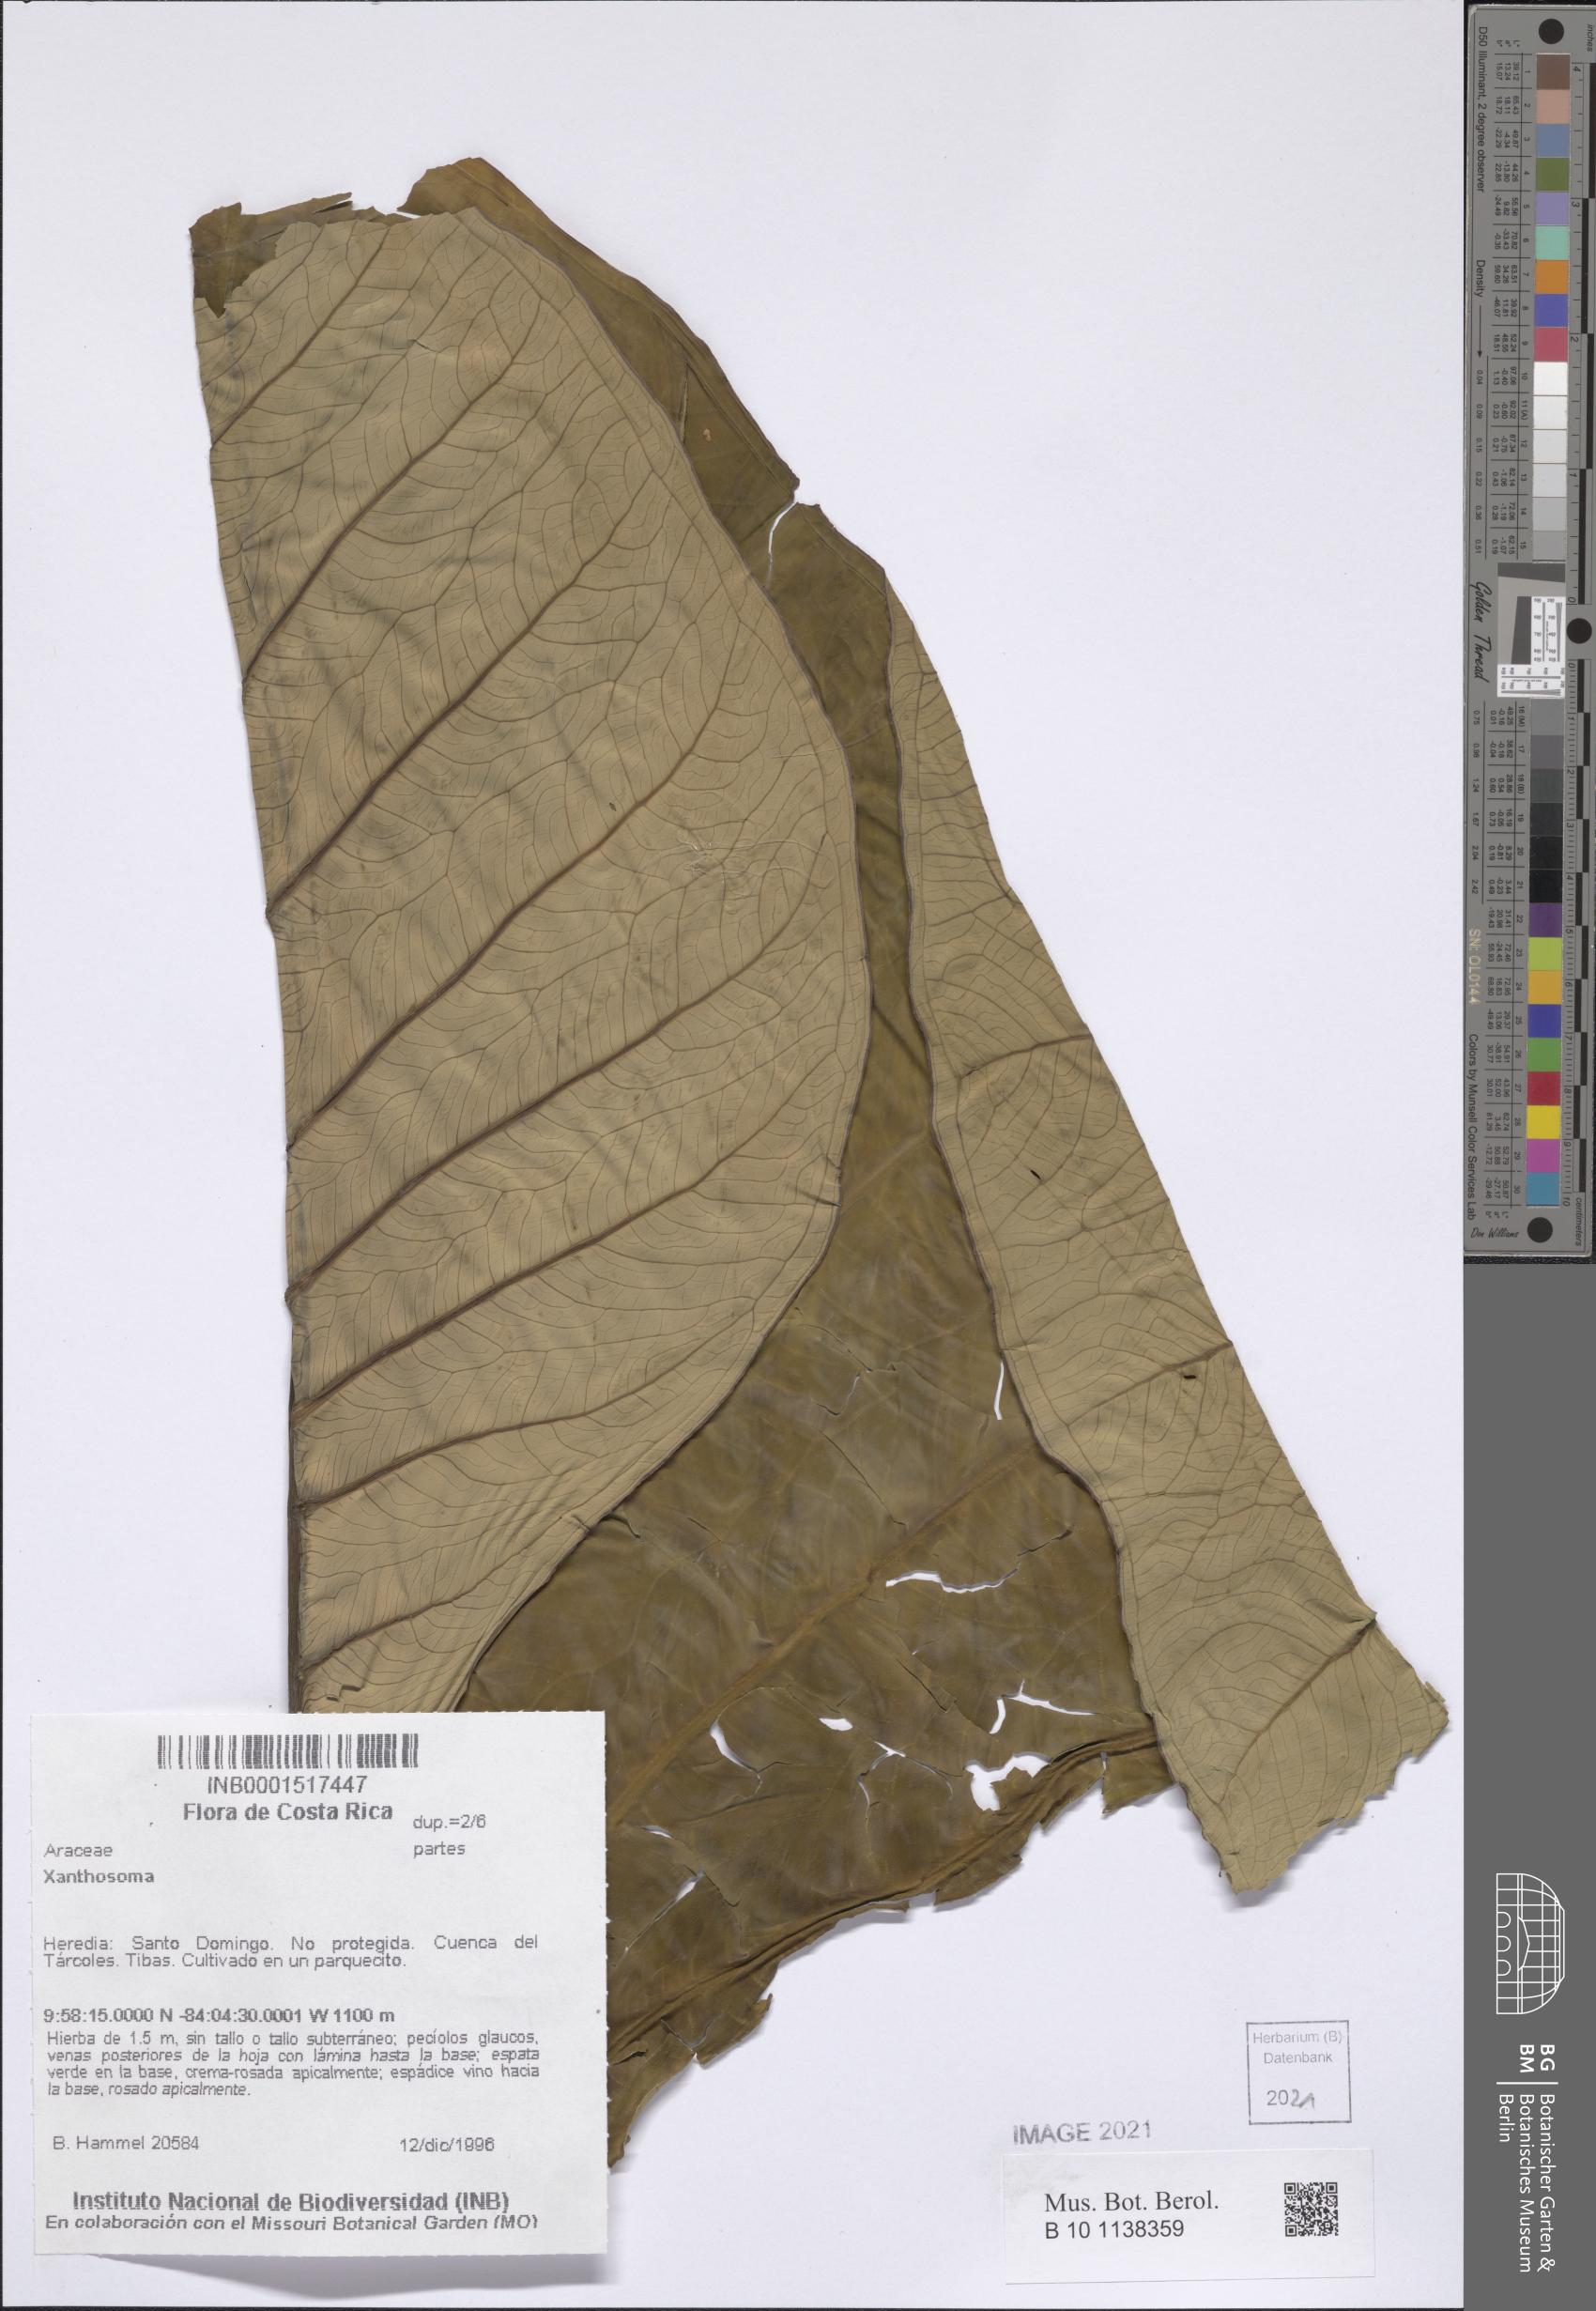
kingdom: Plantae
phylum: Tracheophyta
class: Liliopsida
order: Alismatales
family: Araceae
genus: Xanthosoma
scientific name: Xanthosoma sagittifolium
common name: Arrowleaf elephant's ear
